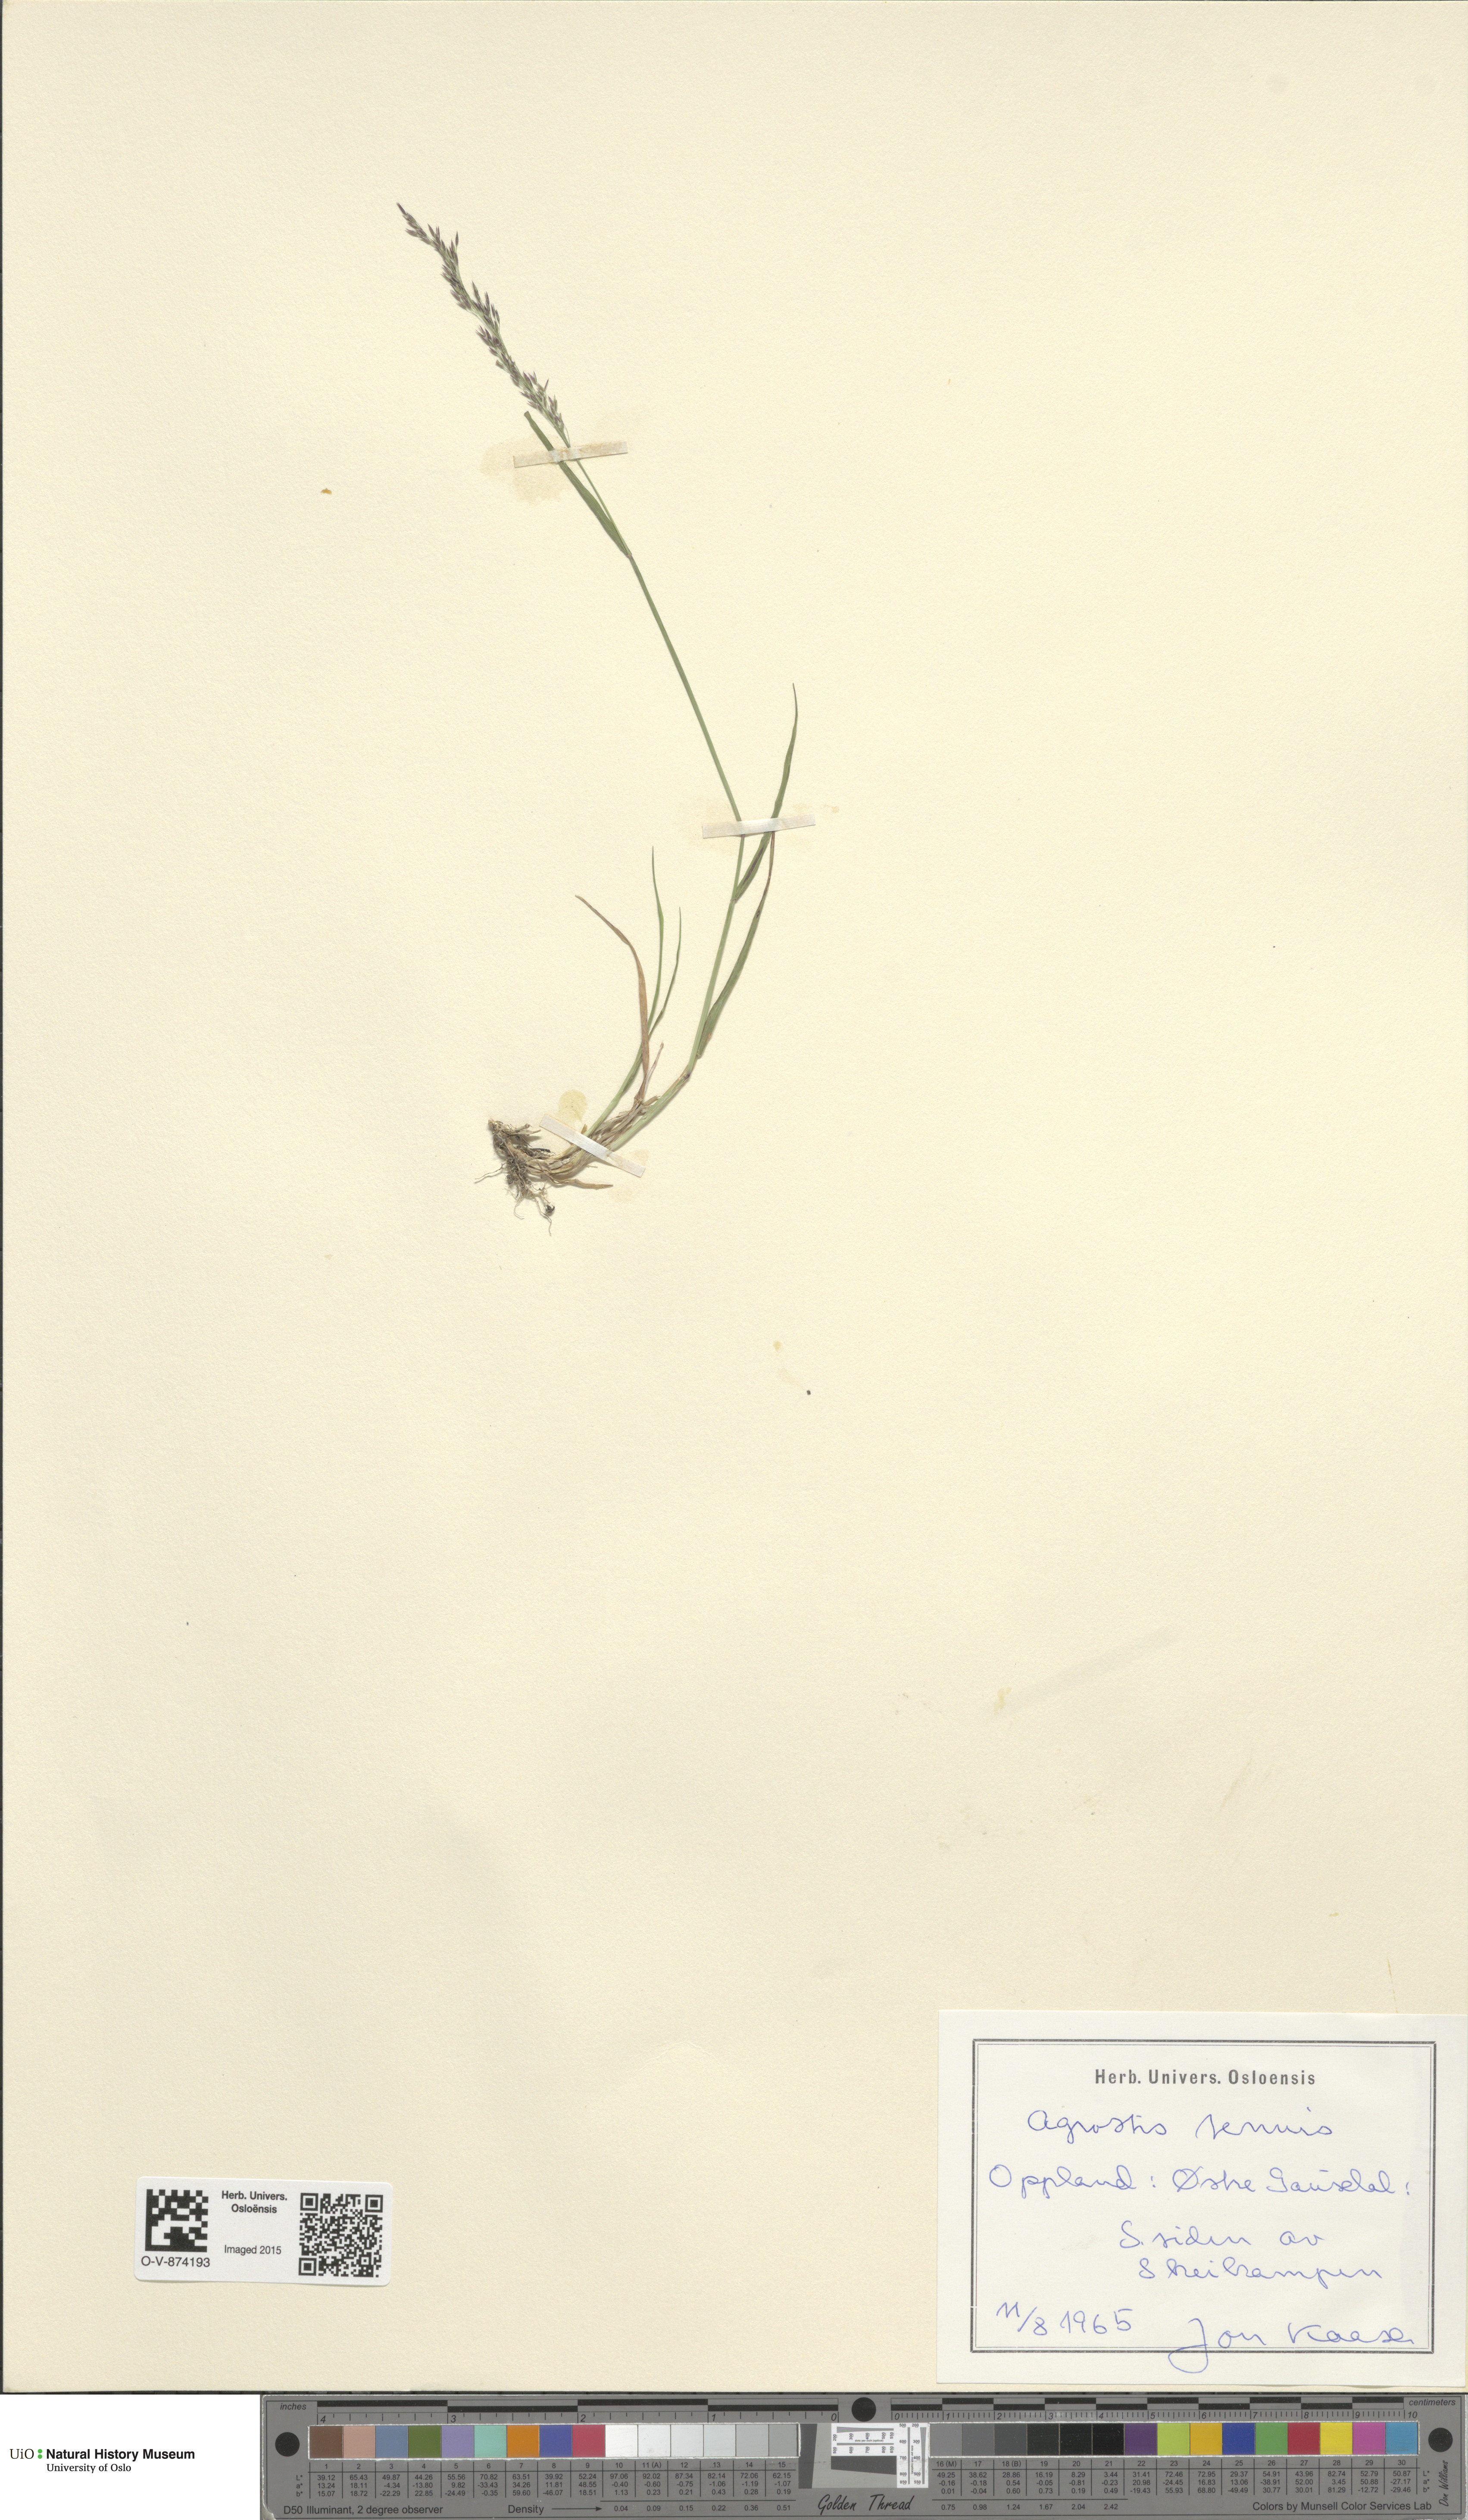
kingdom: Plantae
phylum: Tracheophyta
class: Liliopsida
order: Poales
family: Poaceae
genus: Agrostis
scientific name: Agrostis capillaris
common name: Colonial bentgrass
